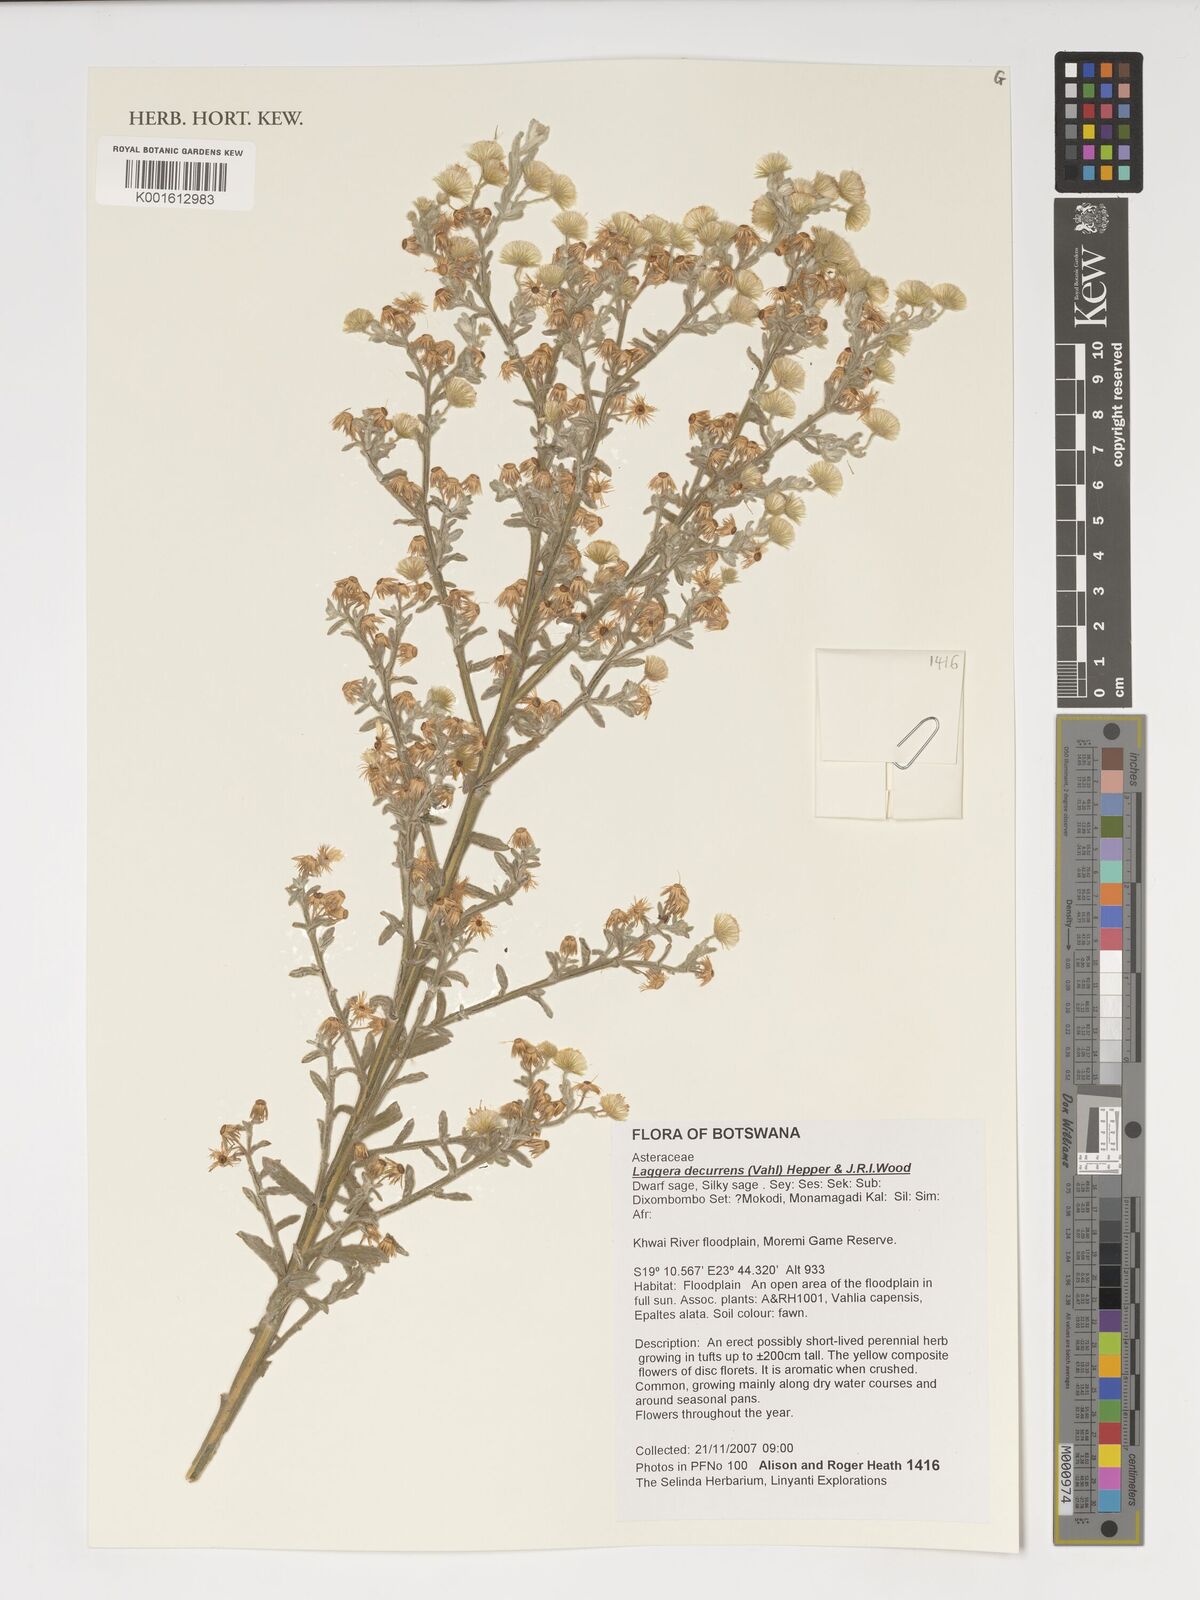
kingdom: Plantae
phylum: Tracheophyta
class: Magnoliopsida
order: Asterales
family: Asteraceae
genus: Galgera
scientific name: Galgera decurrens
